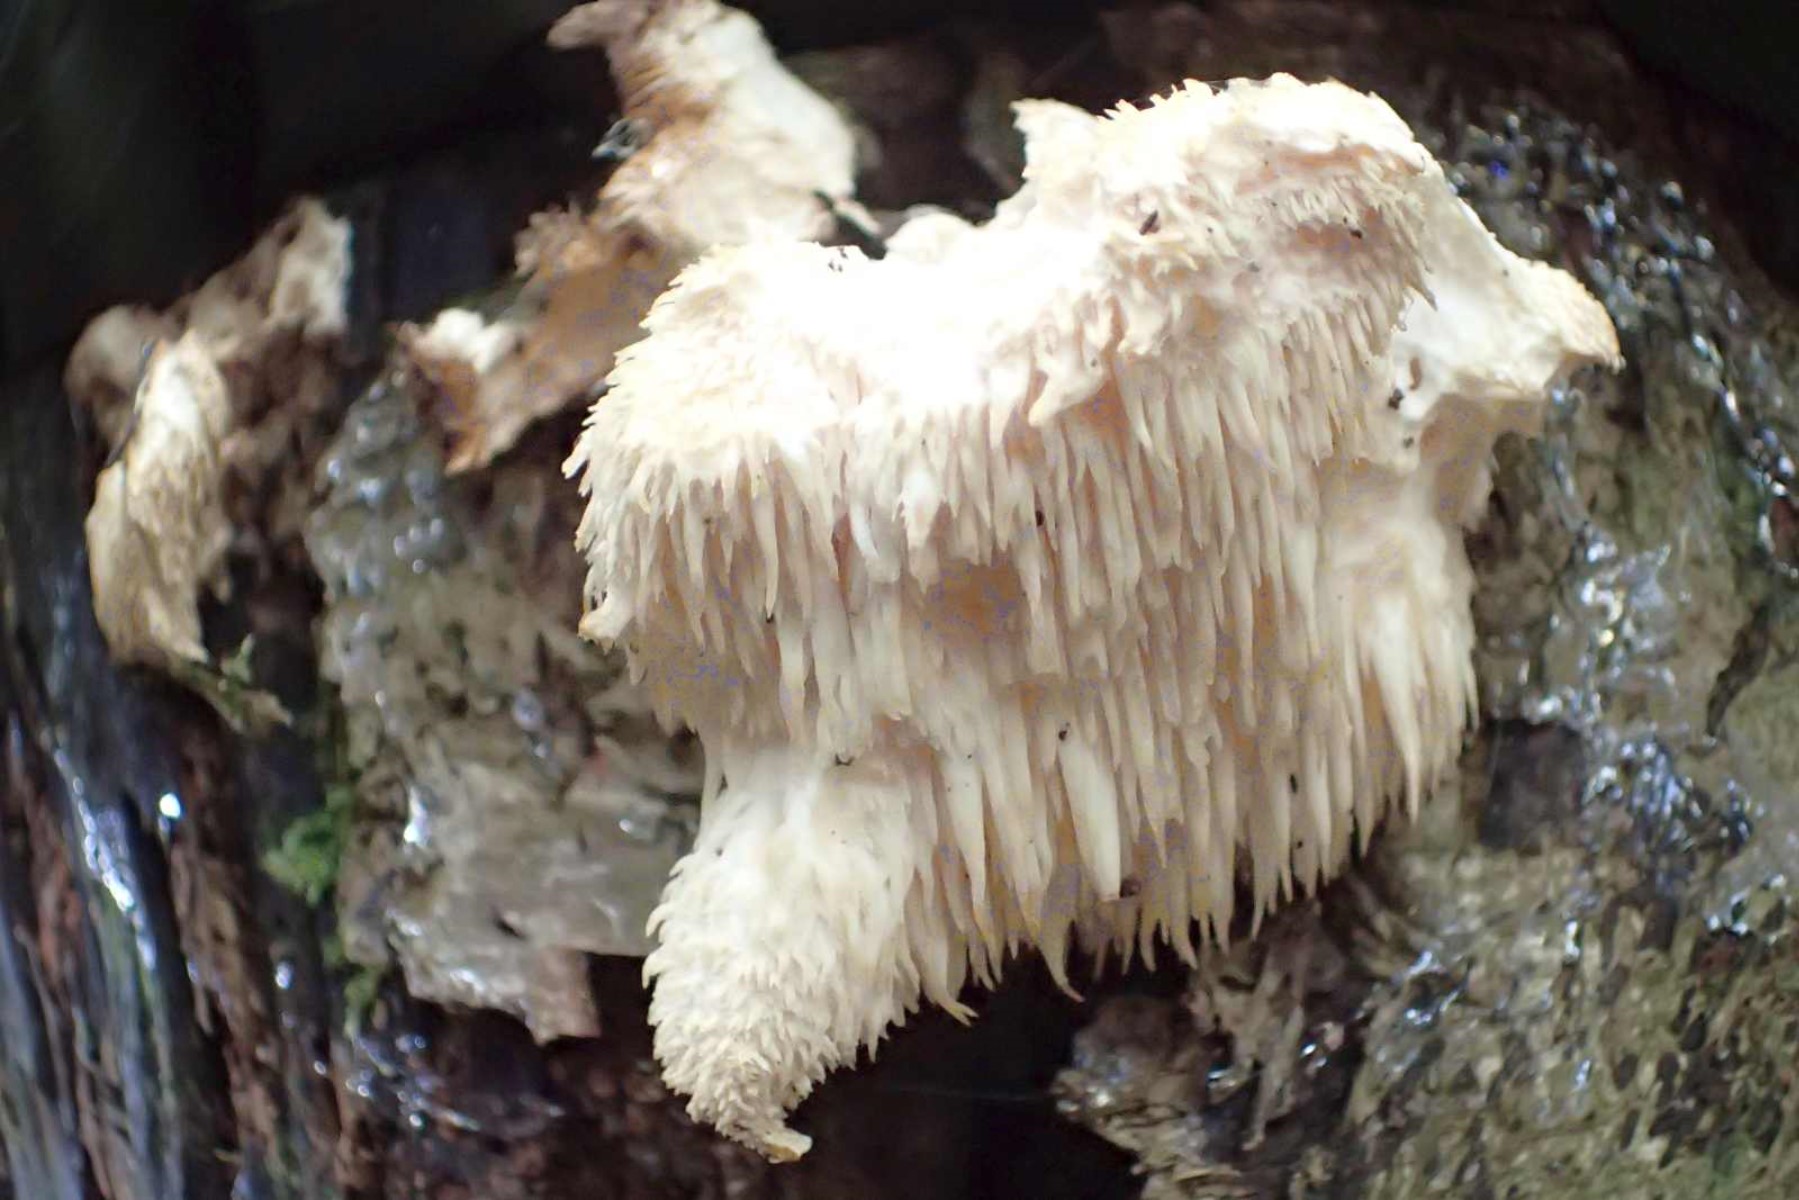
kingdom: Fungi
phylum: Basidiomycota
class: Agaricomycetes
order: Russulales
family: Hericiaceae
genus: Hericium
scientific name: Hericium cirrhatum
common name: børstepigsvamp
